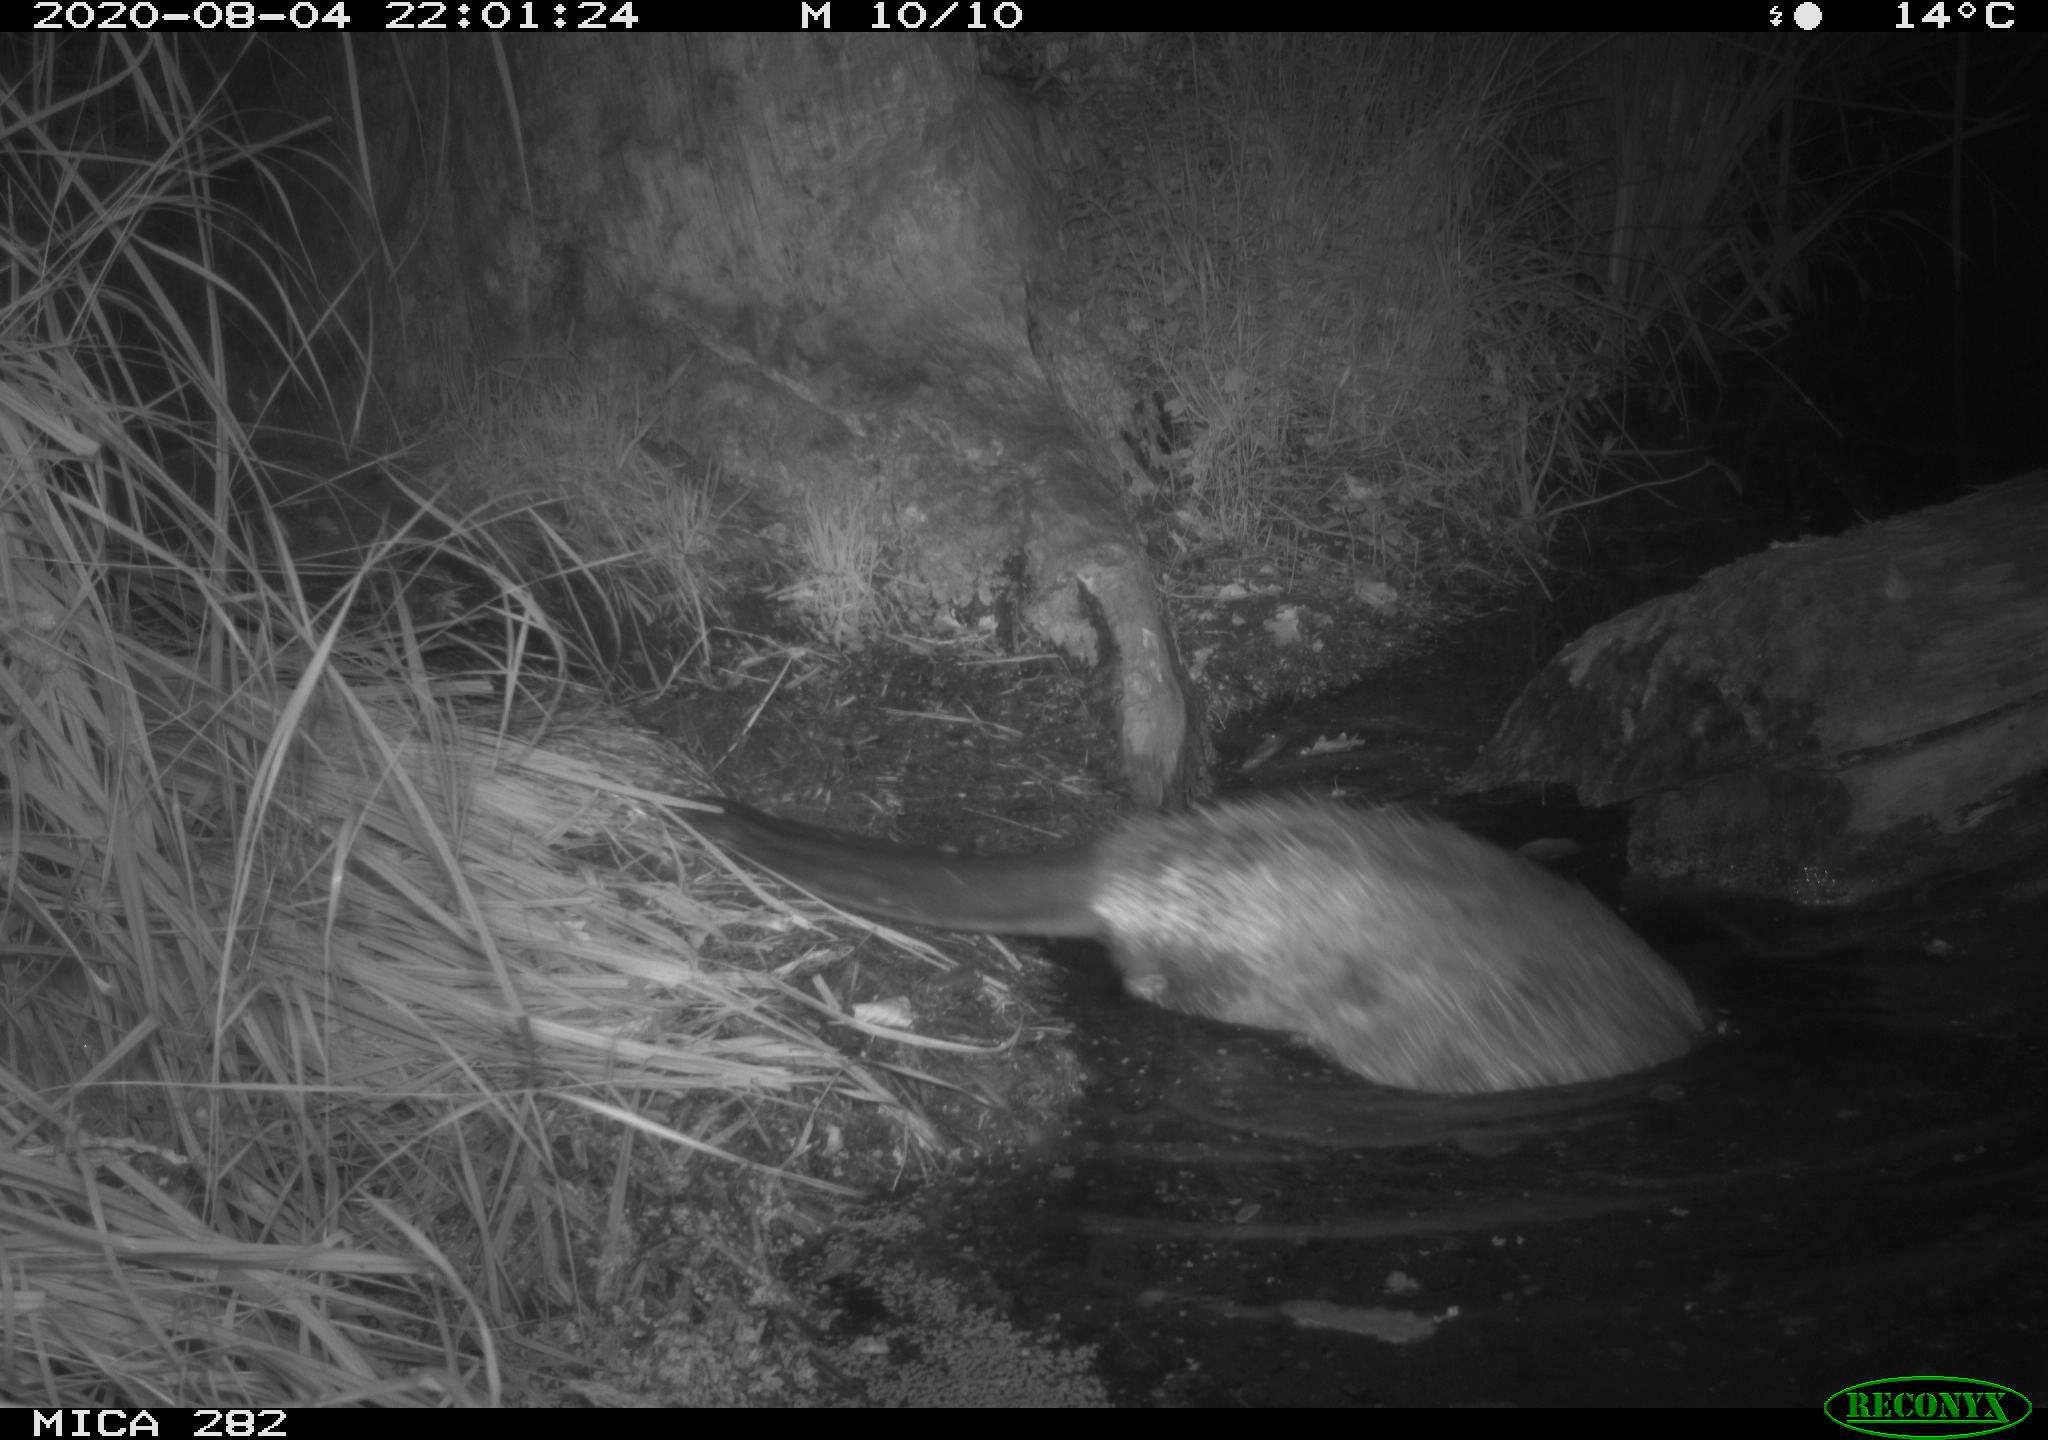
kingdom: Animalia
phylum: Chordata
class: Mammalia
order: Rodentia
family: Castoridae
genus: Castor
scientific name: Castor fiber
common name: Eurasian beaver
